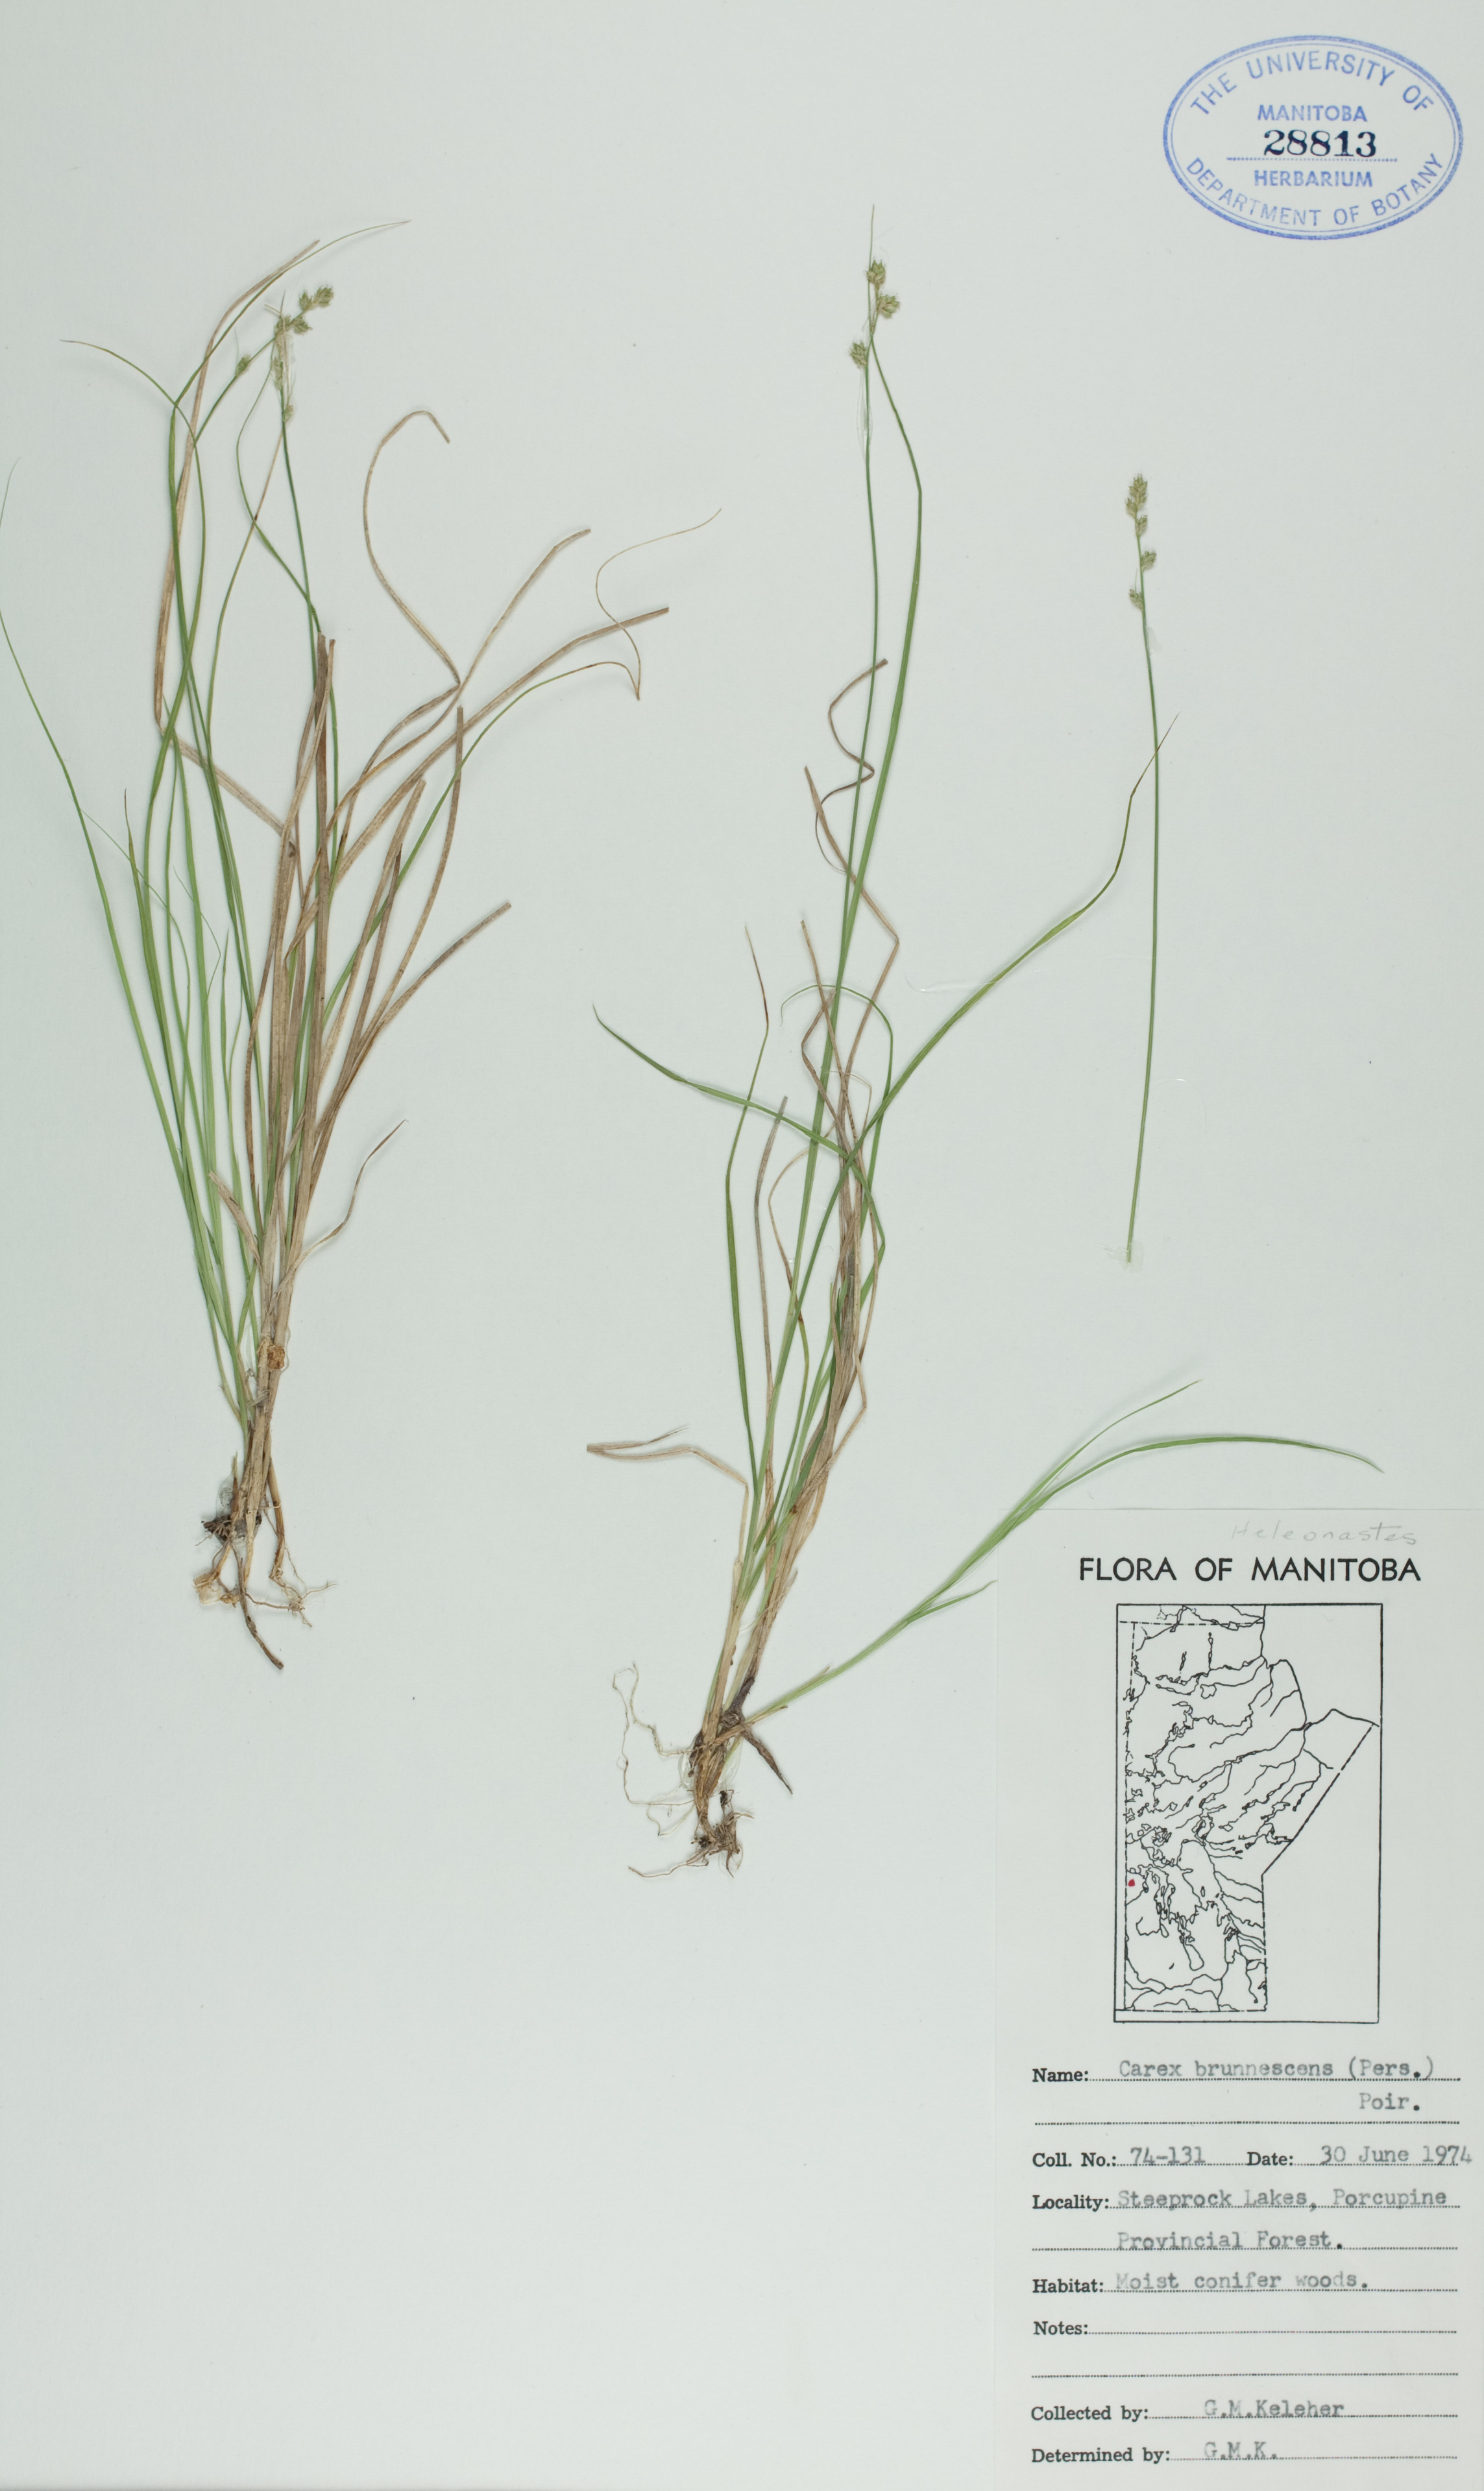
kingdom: Plantae
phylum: Tracheophyta
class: Liliopsida
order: Poales
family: Cyperaceae
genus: Carex
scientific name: Carex brunnescens
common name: Brown sedge
